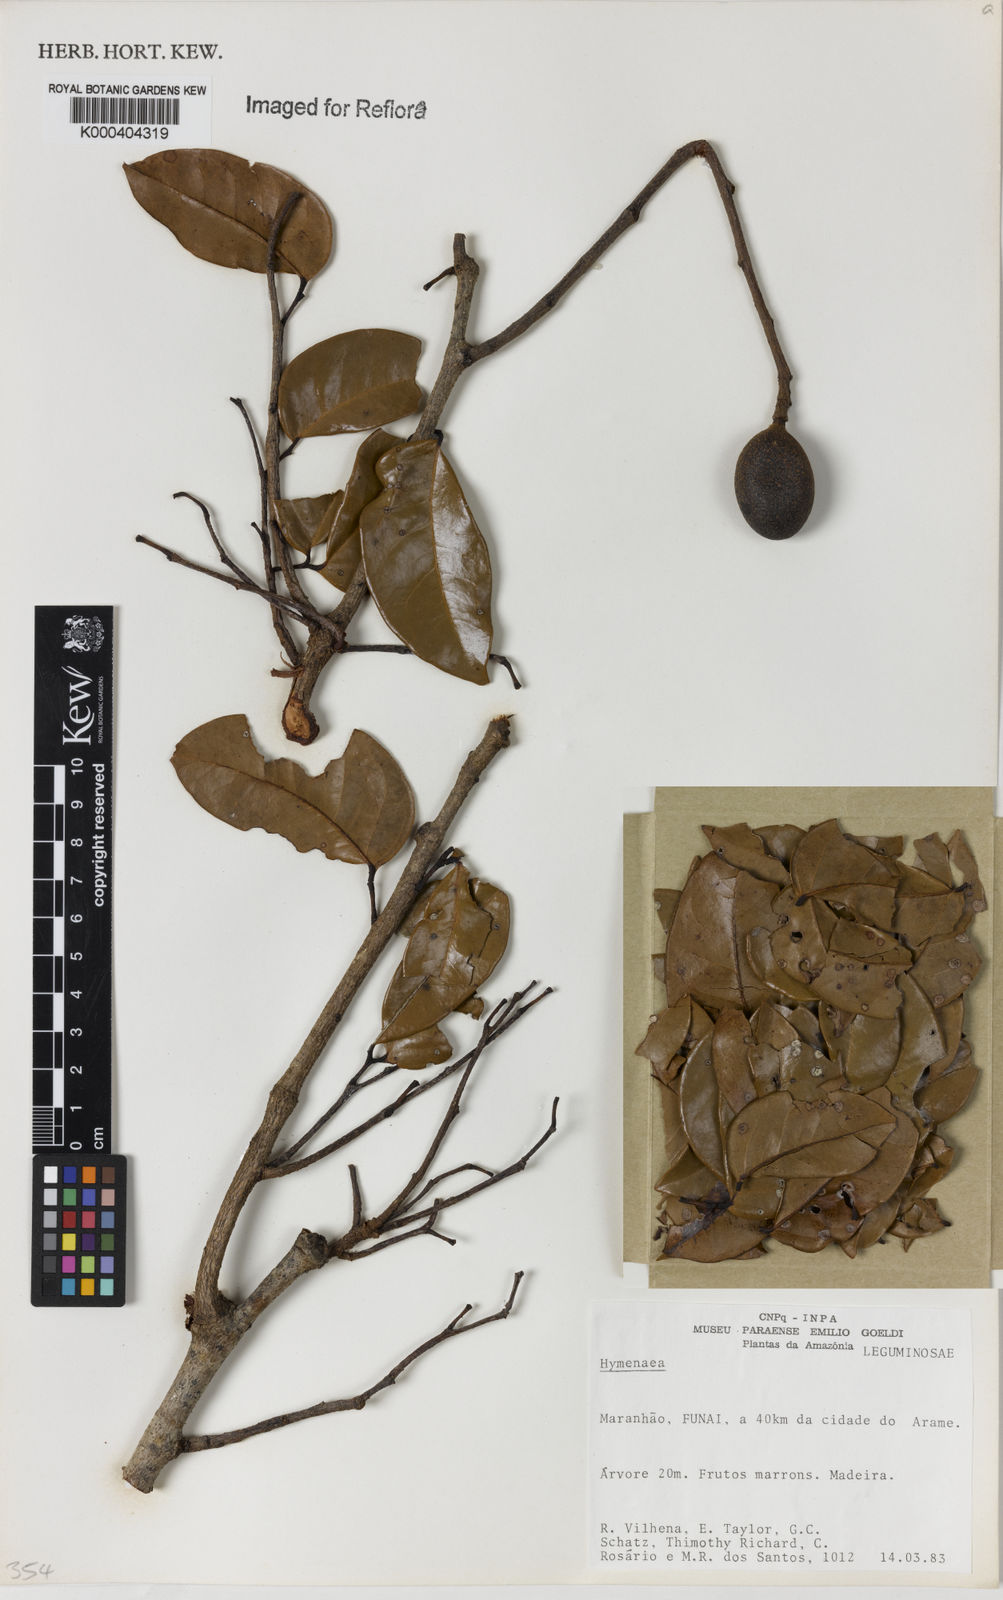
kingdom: Plantae
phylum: Tracheophyta
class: Magnoliopsida
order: Fabales
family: Fabaceae
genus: Hymenaea
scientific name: Hymenaea
